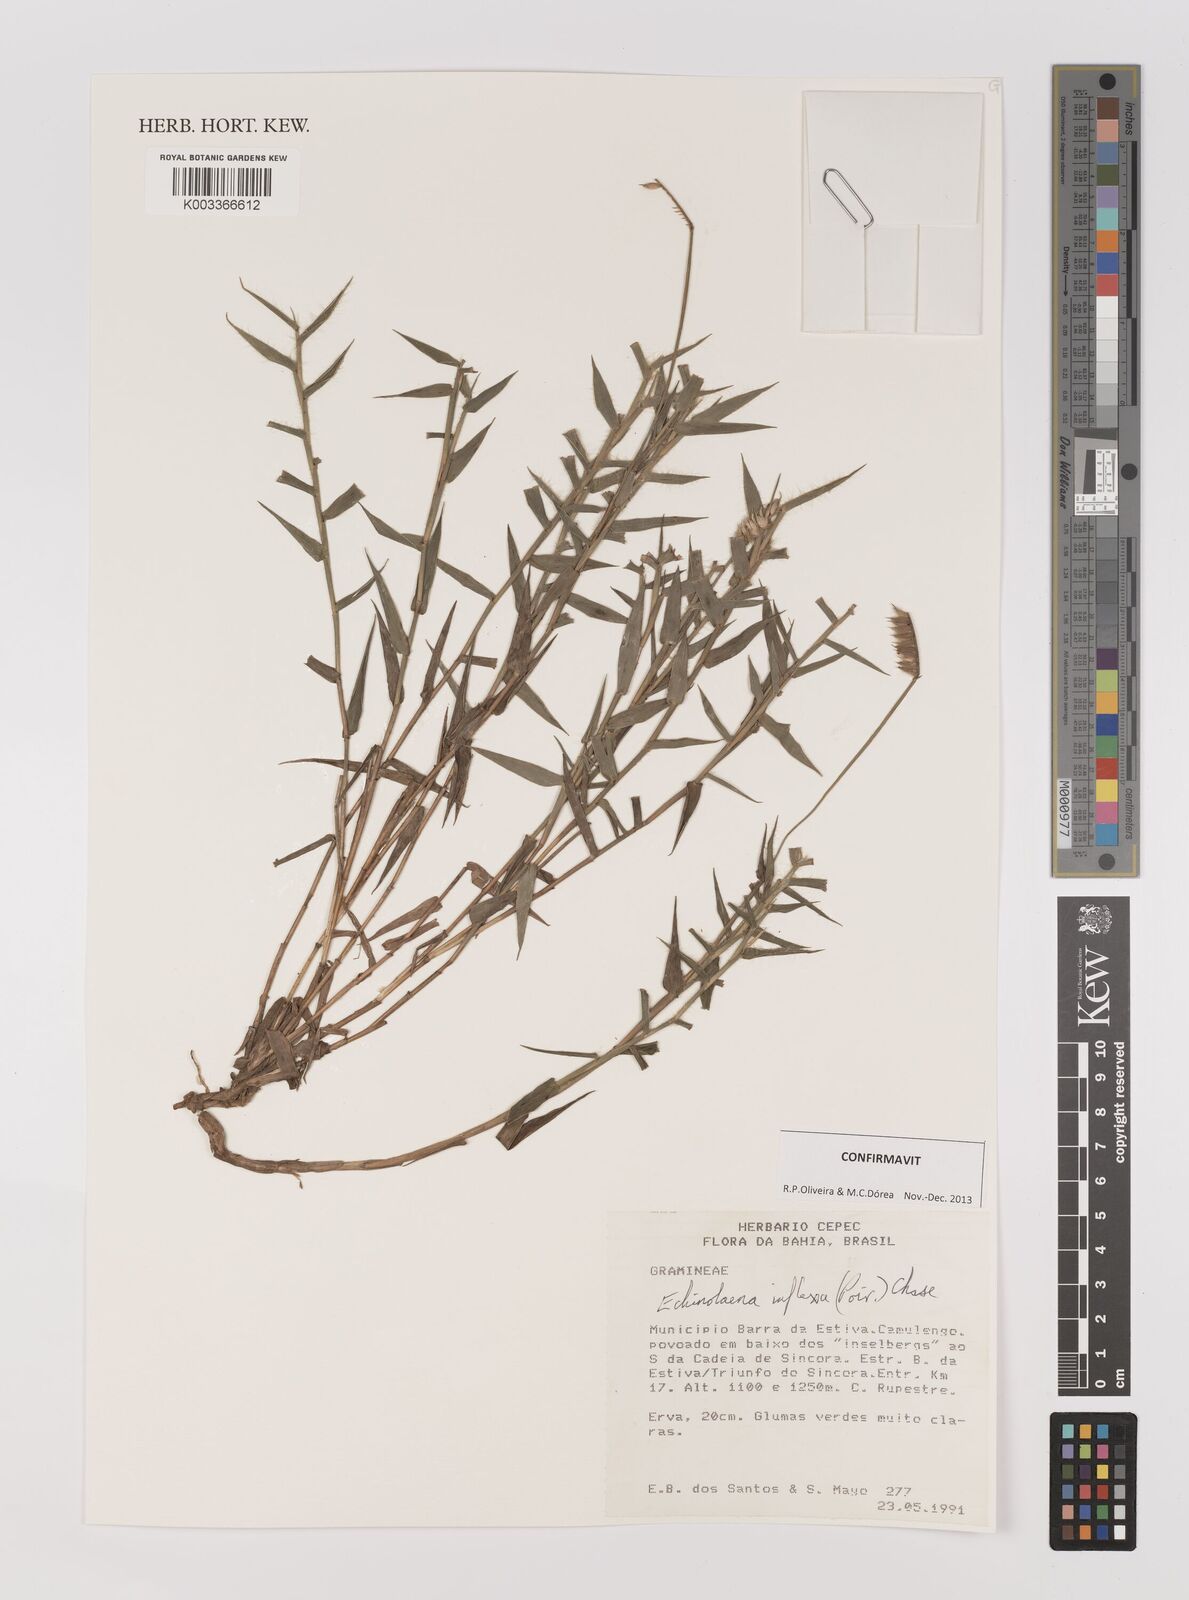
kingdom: Plantae
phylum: Tracheophyta
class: Liliopsida
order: Poales
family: Poaceae
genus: Echinolaena
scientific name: Echinolaena inflexa
